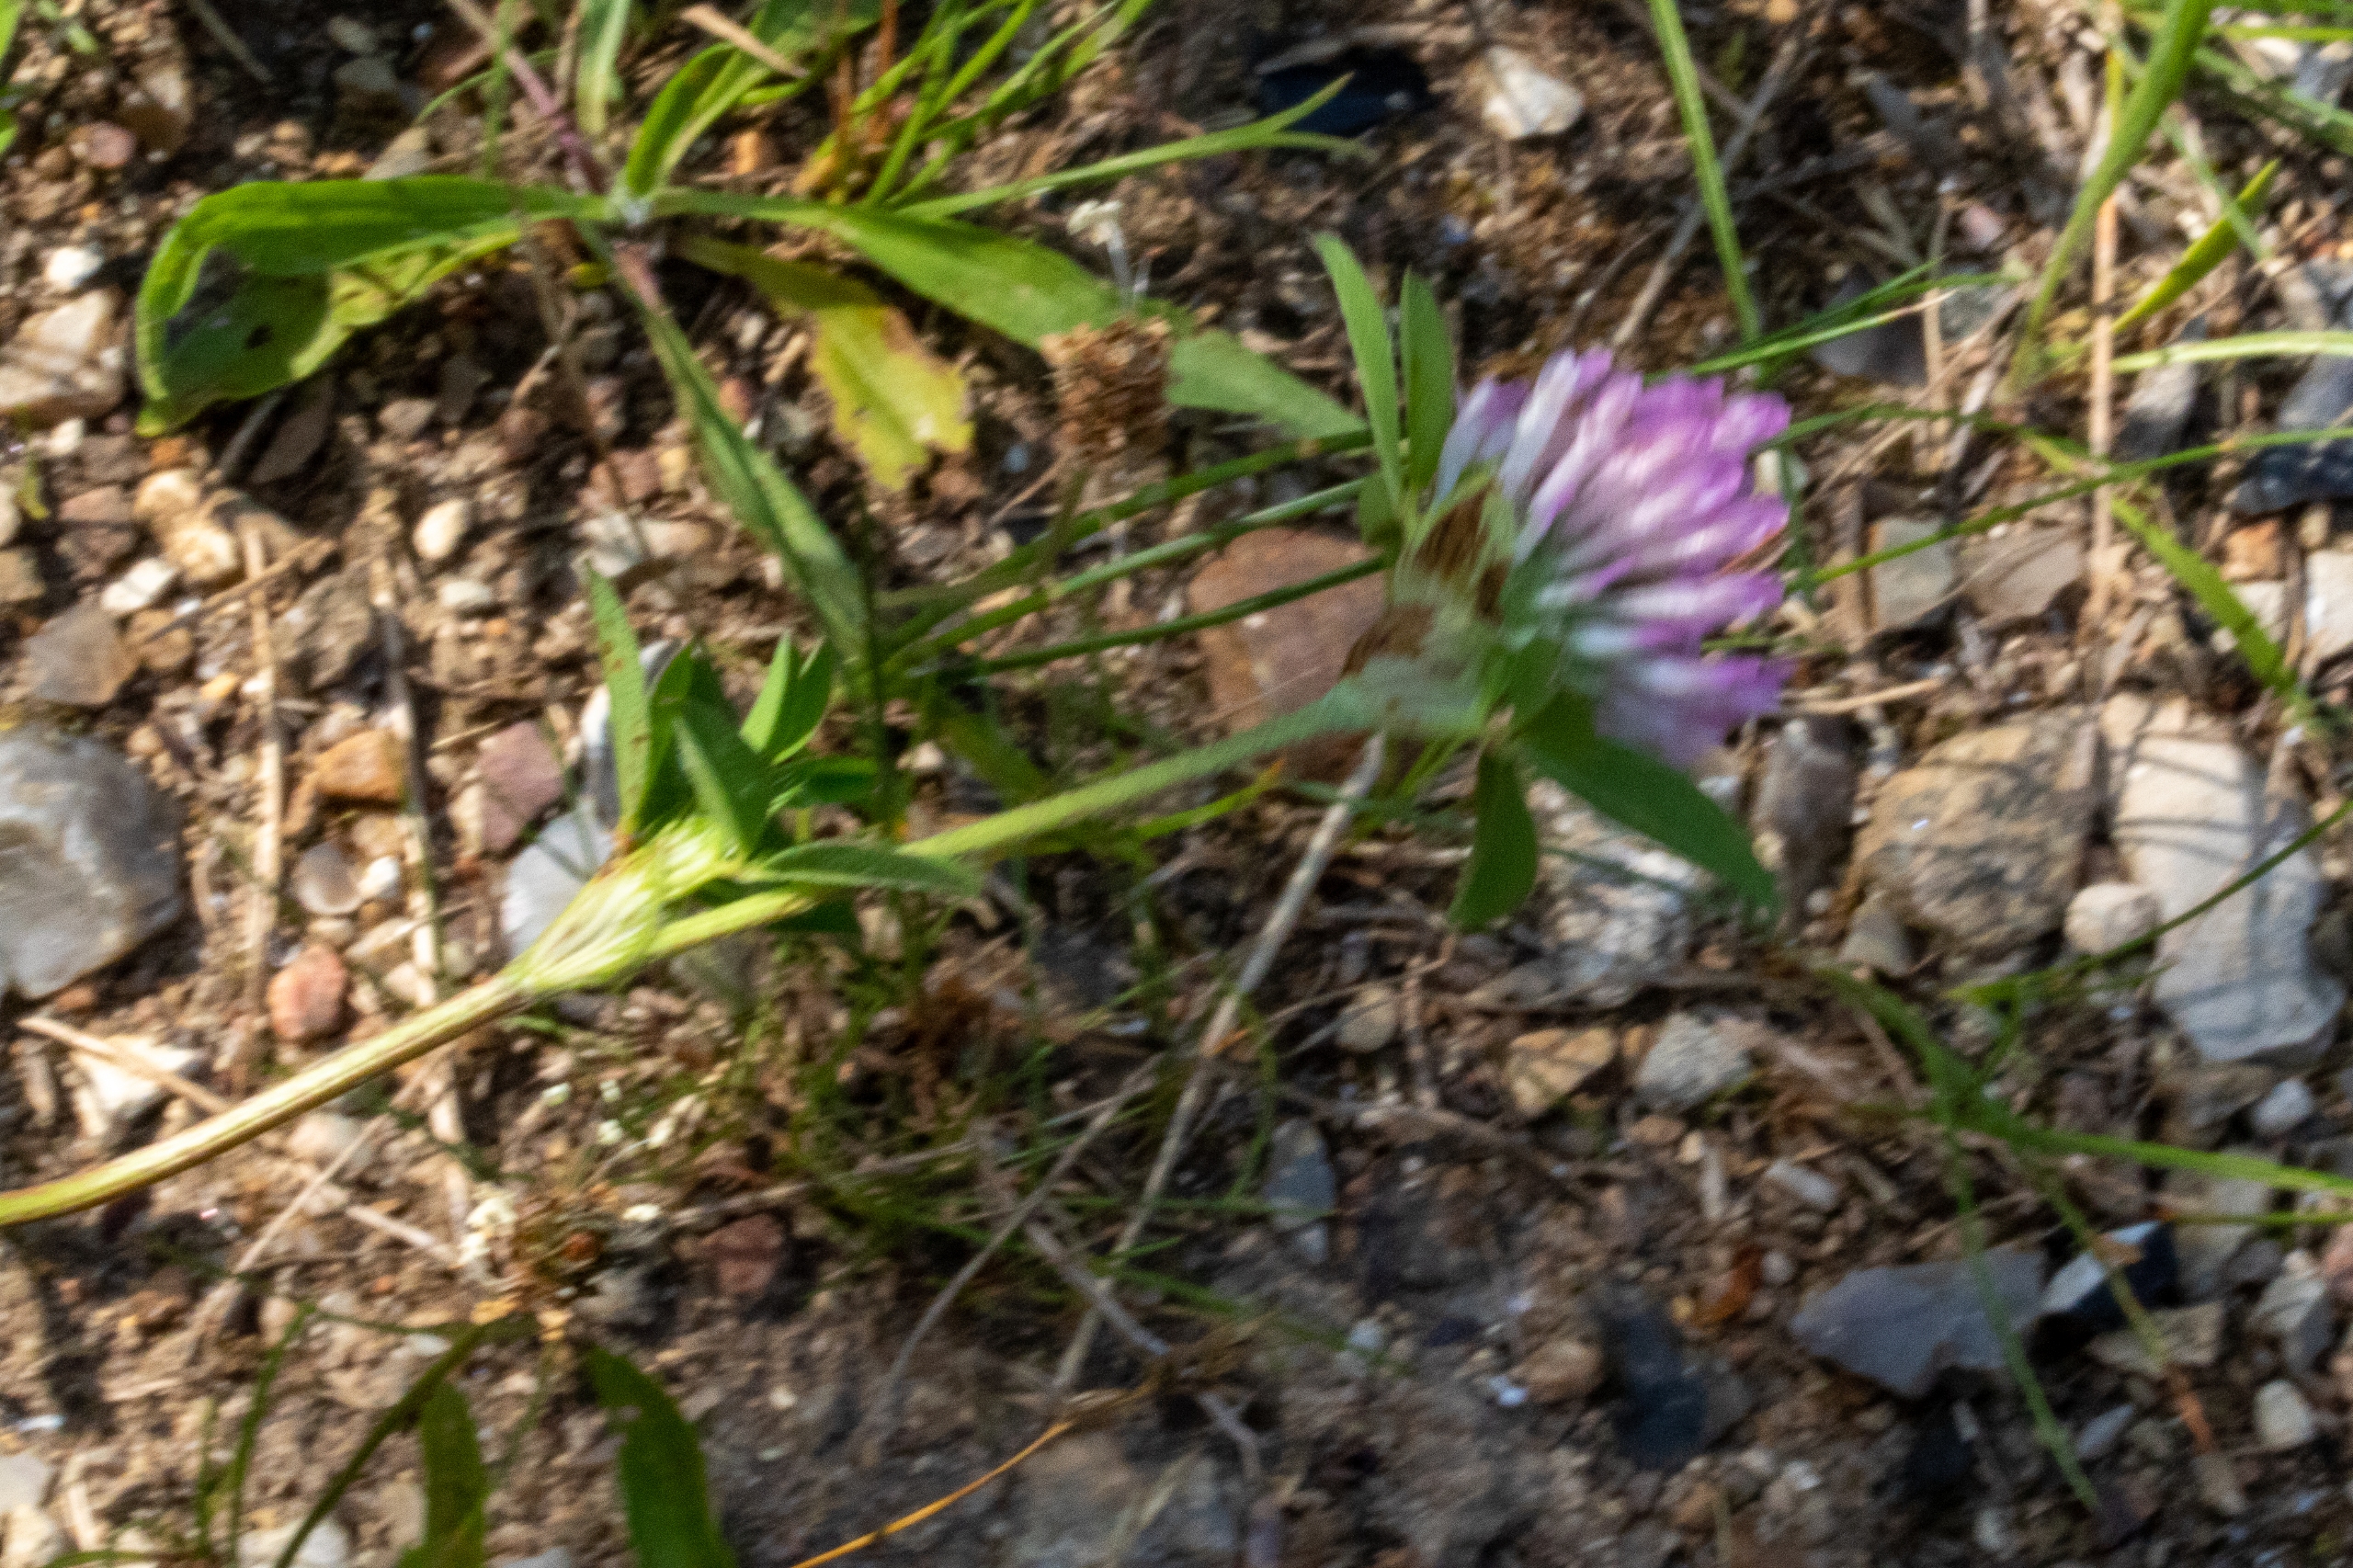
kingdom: Plantae
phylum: Tracheophyta
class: Magnoliopsida
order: Fabales
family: Fabaceae
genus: Trifolium
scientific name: Trifolium pratense
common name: Rød-kløver
